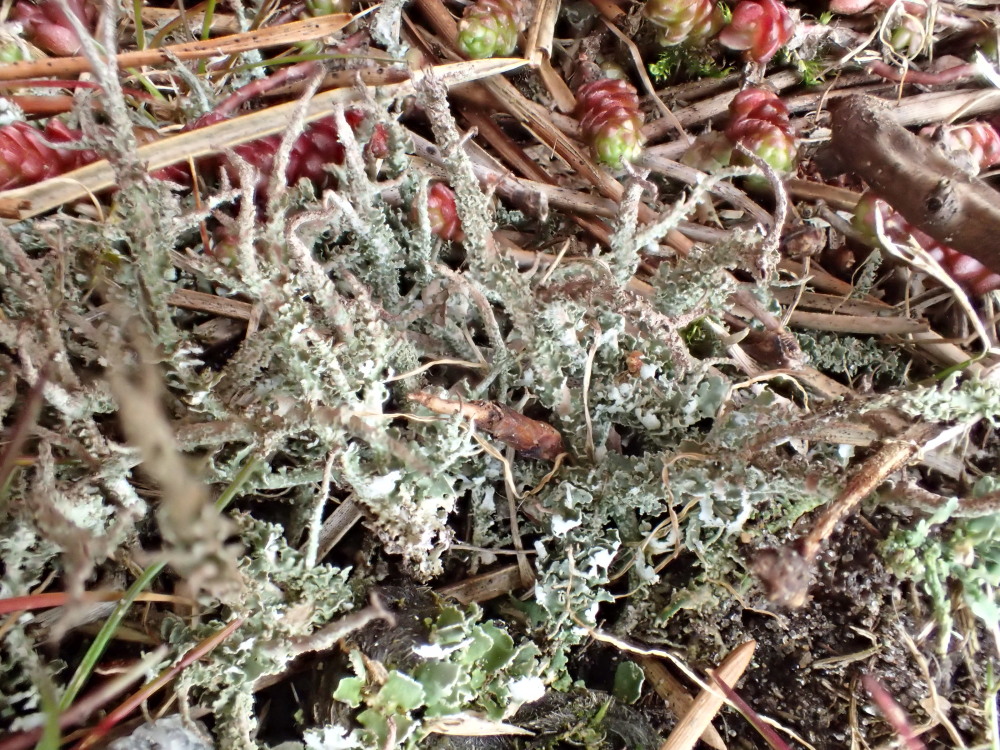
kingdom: Fungi
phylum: Ascomycota
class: Lecanoromycetes
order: Lecanorales
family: Cladoniaceae
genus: Cladonia
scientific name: Cladonia scabriuscula
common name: ru bægerlav
